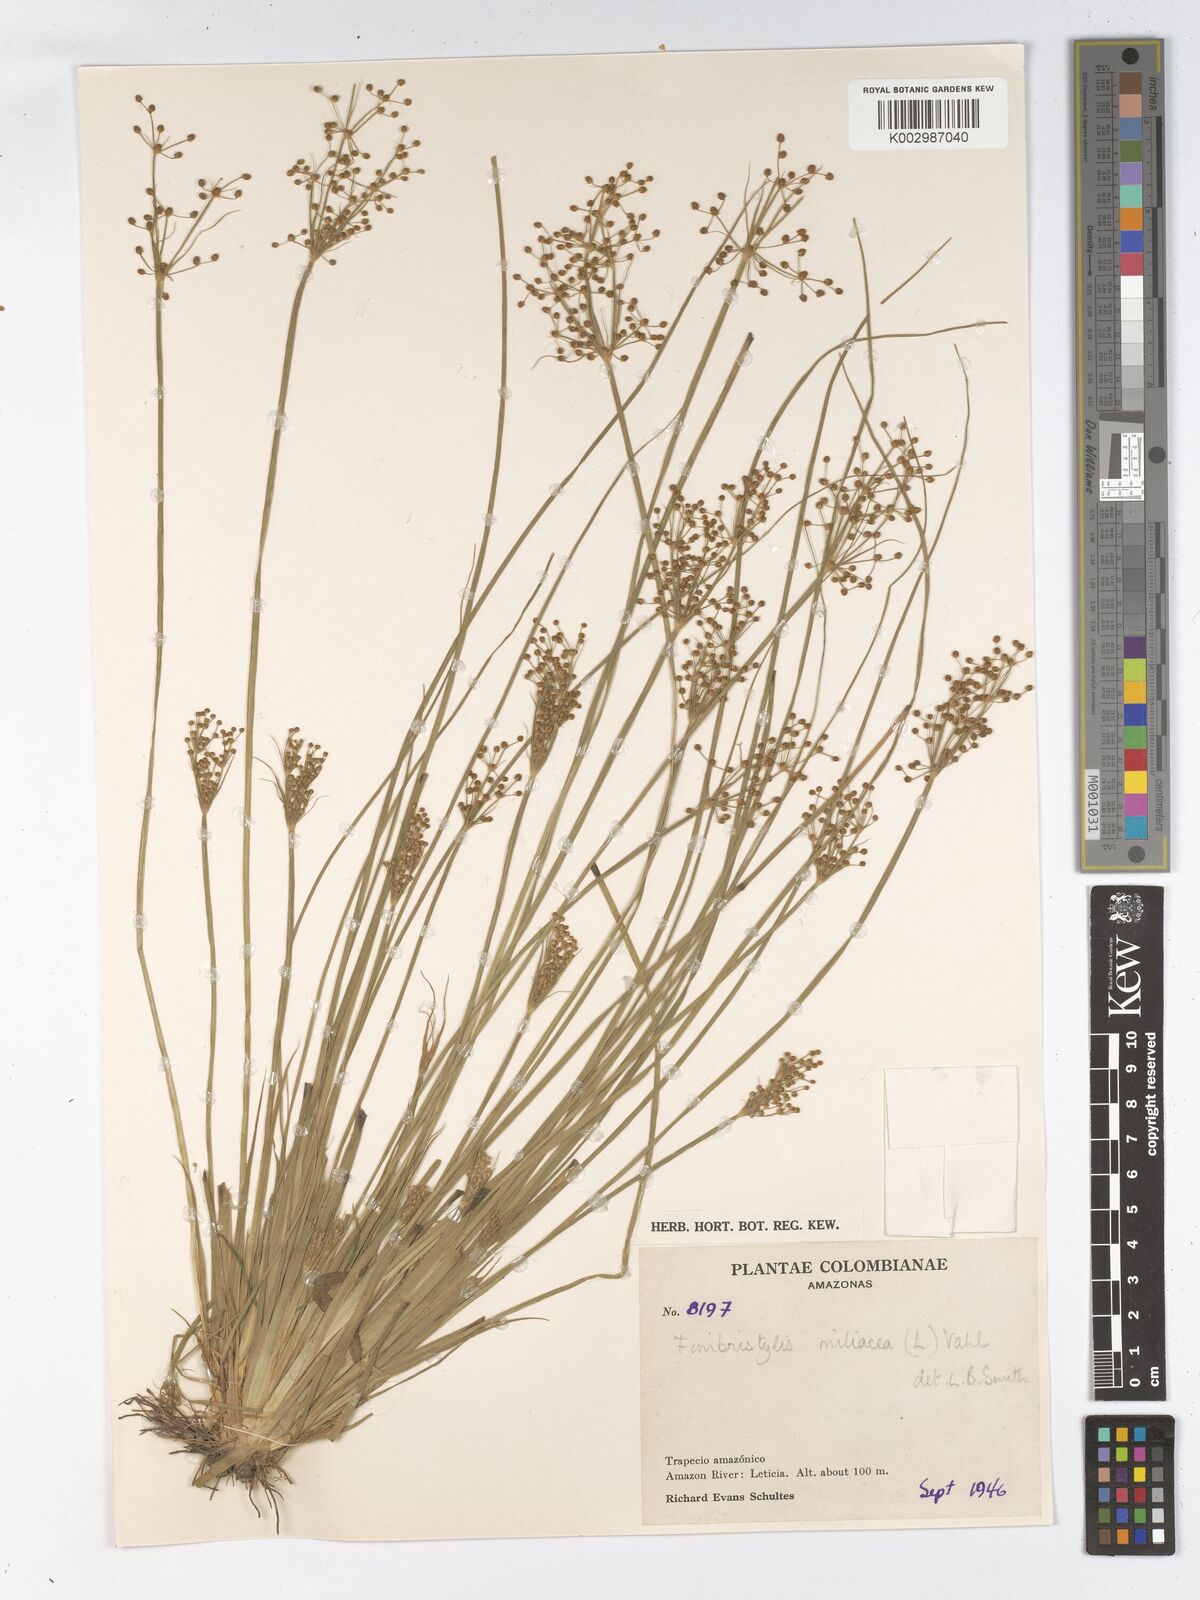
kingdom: Plantae
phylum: Tracheophyta
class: Liliopsida
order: Poales
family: Cyperaceae
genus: Fimbristylis
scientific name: Fimbristylis littoralis
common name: Fimbry
